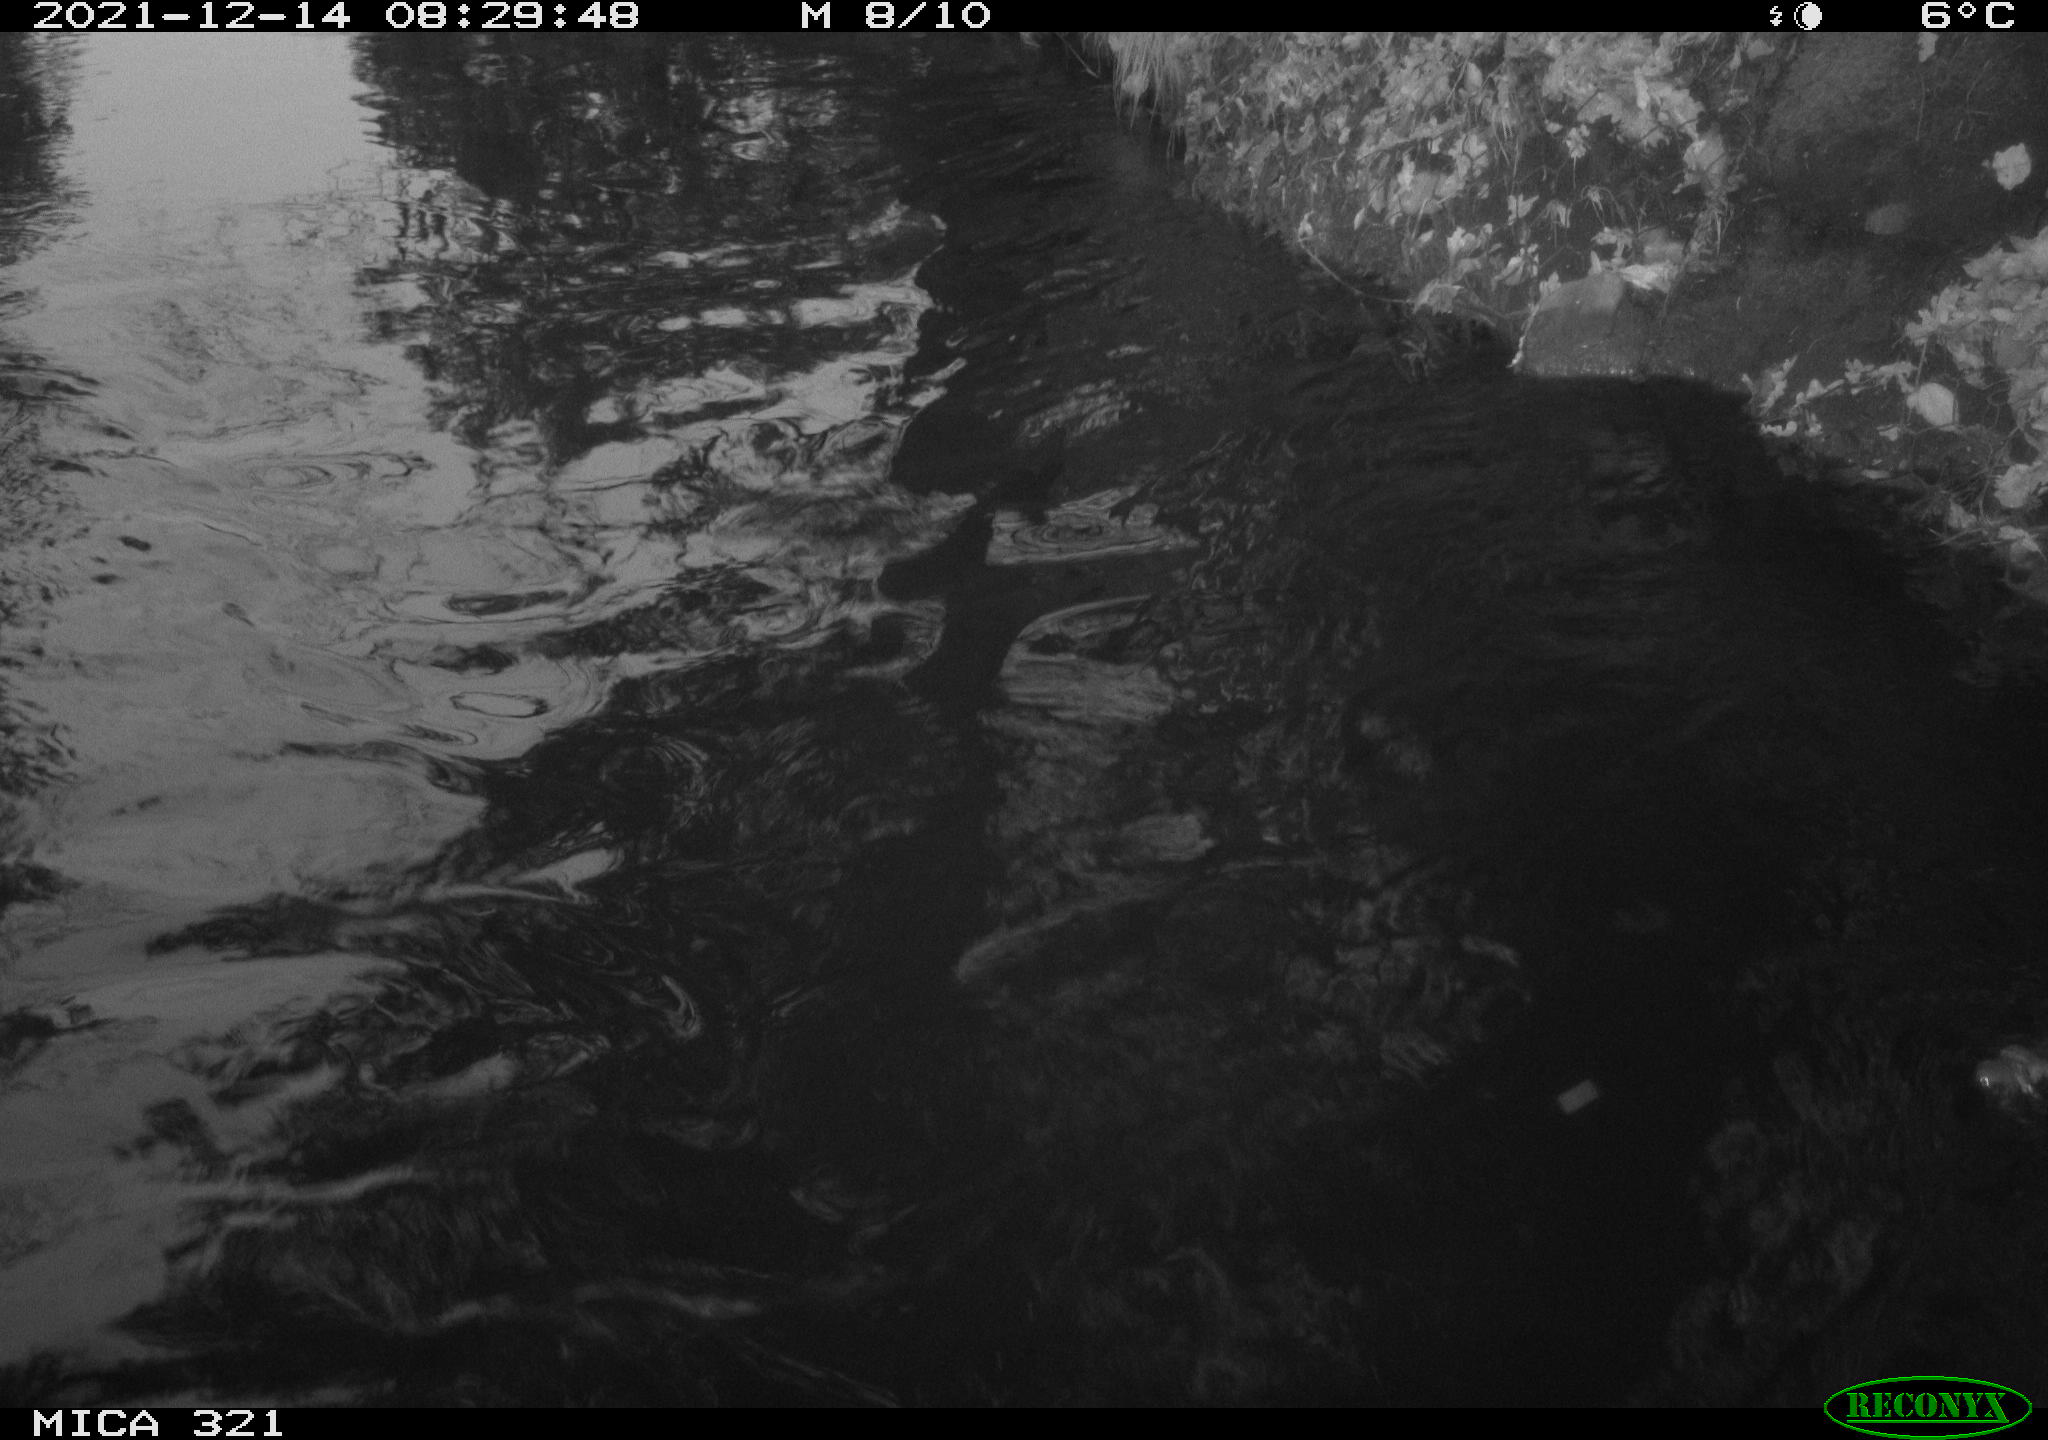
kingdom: Animalia
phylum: Chordata
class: Aves
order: Suliformes
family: Phalacrocoracidae
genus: Phalacrocorax
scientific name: Phalacrocorax carbo
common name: Great cormorant
